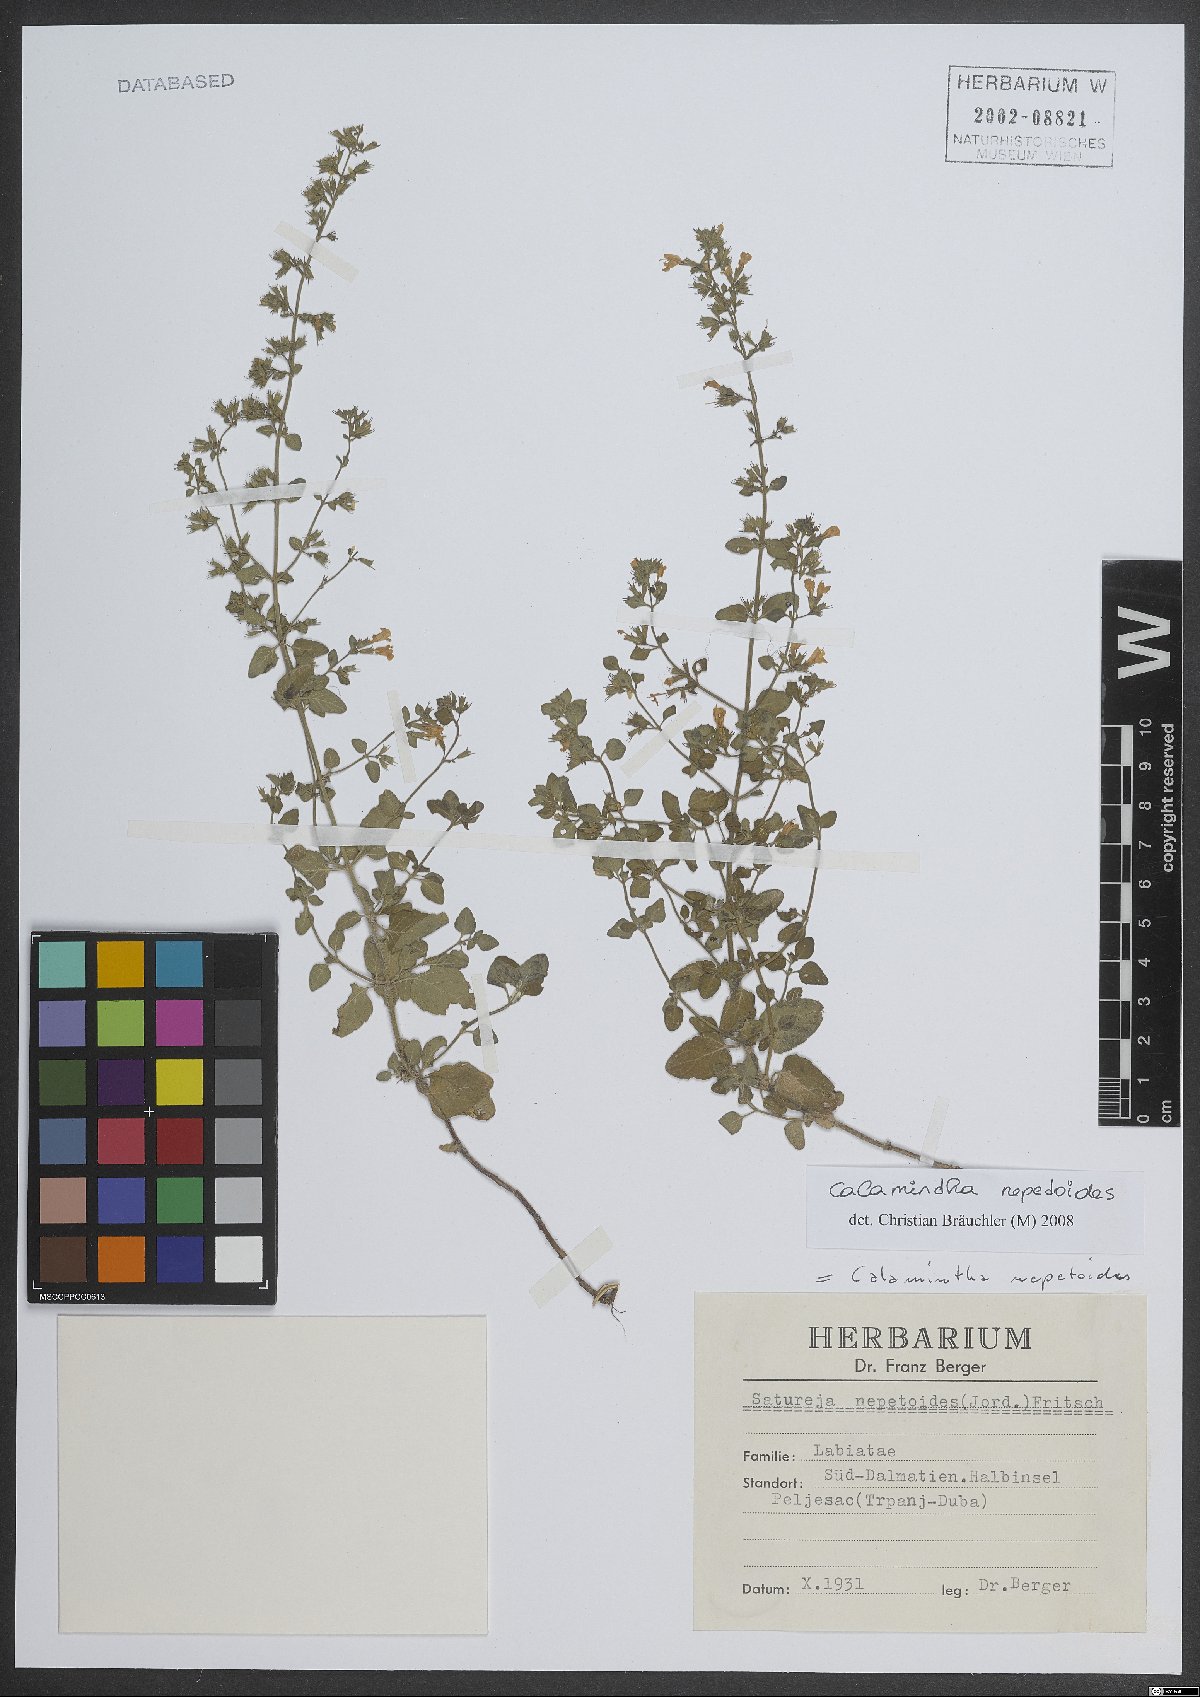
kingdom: Plantae
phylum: Tracheophyta
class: Magnoliopsida
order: Lamiales
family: Lamiaceae
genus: Clinopodium
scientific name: Clinopodium nepeta
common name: Lesser calamint
